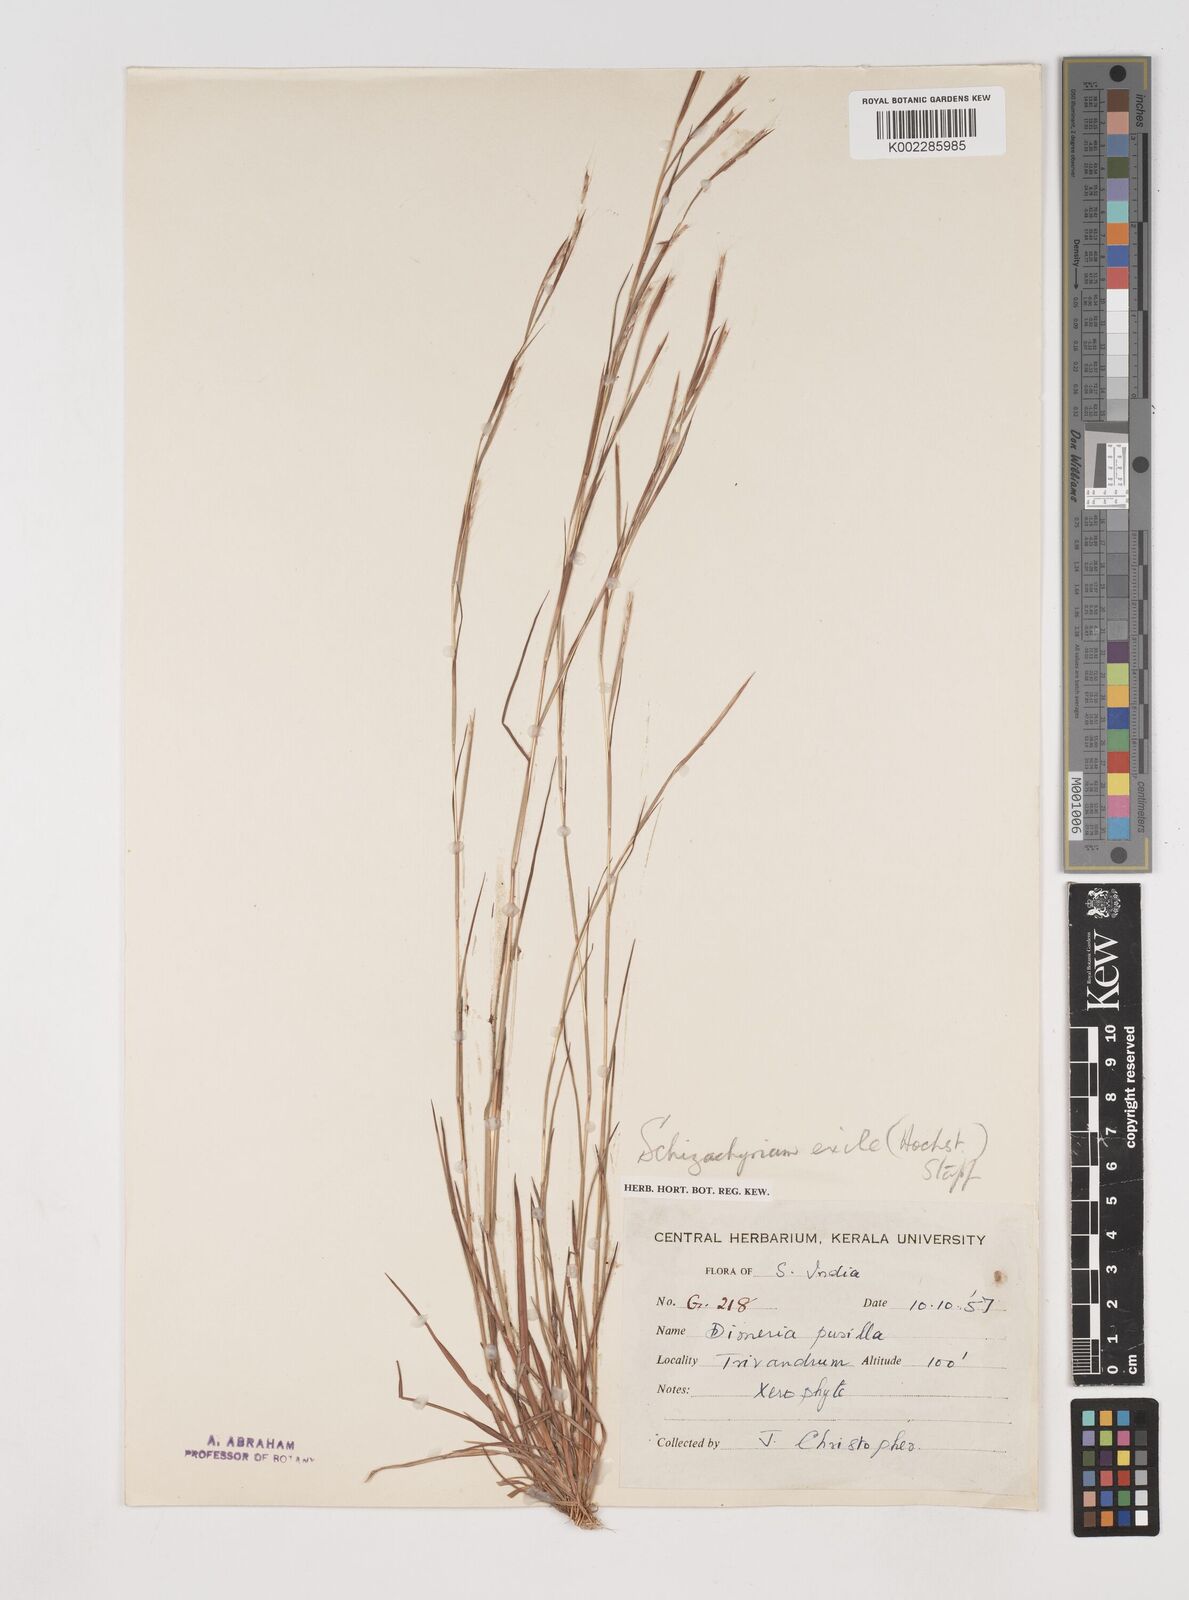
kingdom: Plantae
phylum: Tracheophyta
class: Liliopsida
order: Poales
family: Poaceae
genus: Schizachyrium
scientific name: Schizachyrium exile
